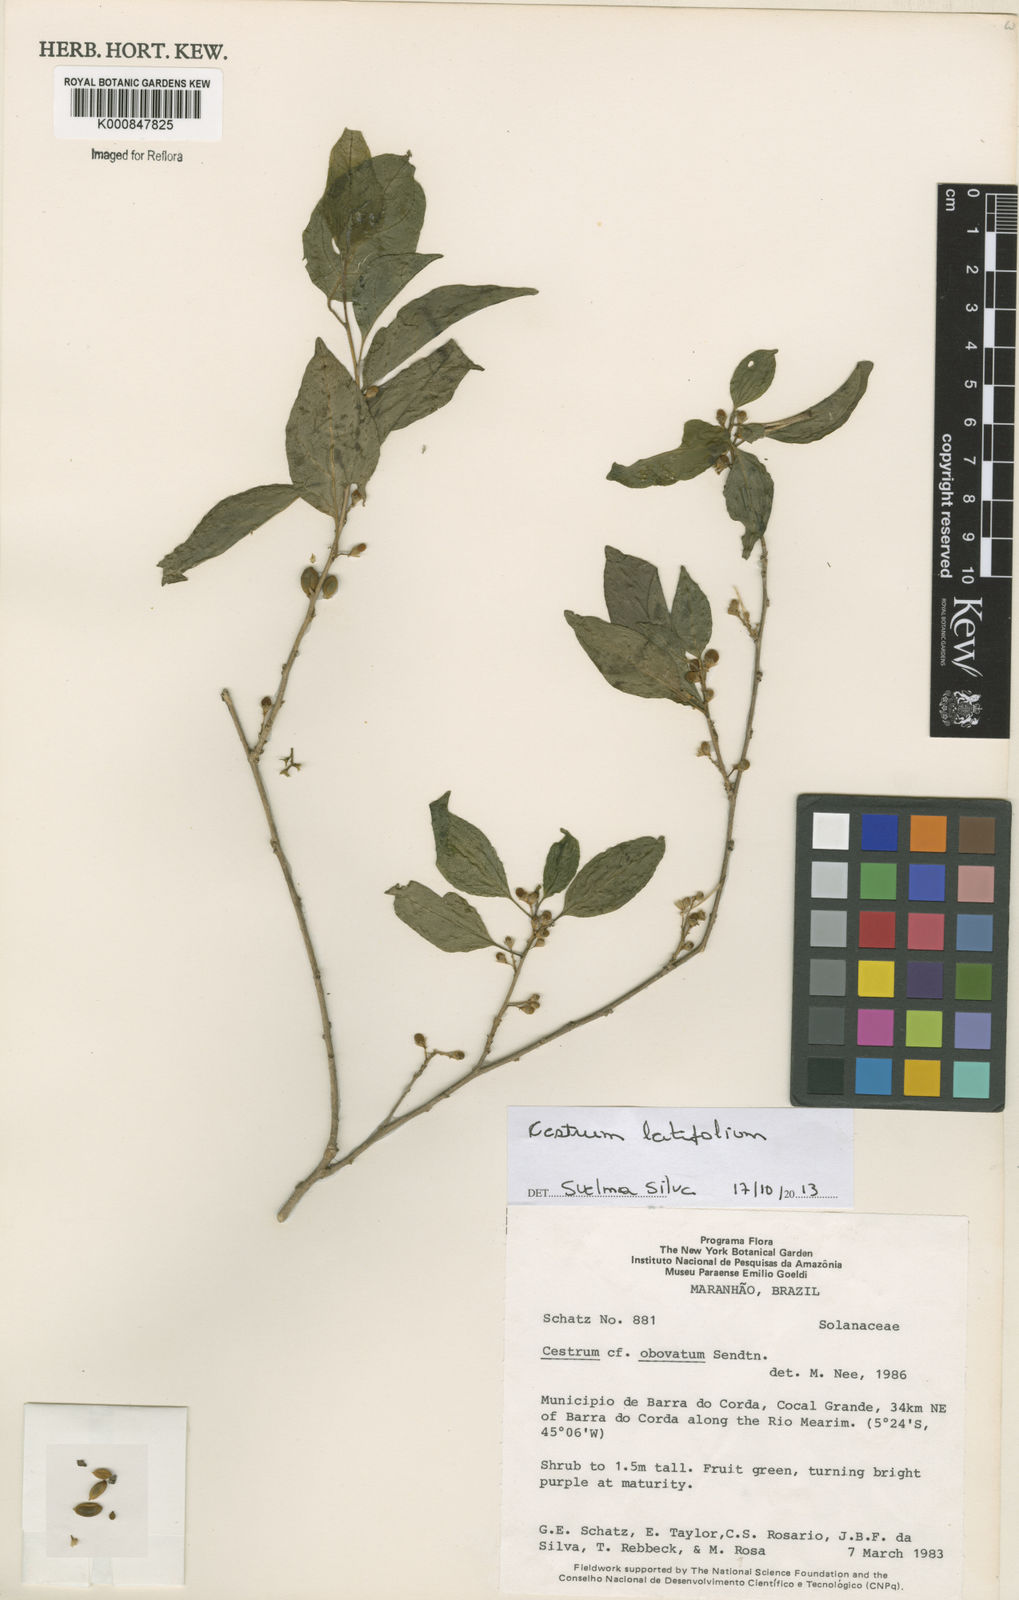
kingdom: Plantae
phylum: Tracheophyta
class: Magnoliopsida
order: Solanales
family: Solanaceae
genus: Cestrum
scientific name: Cestrum obovatum
